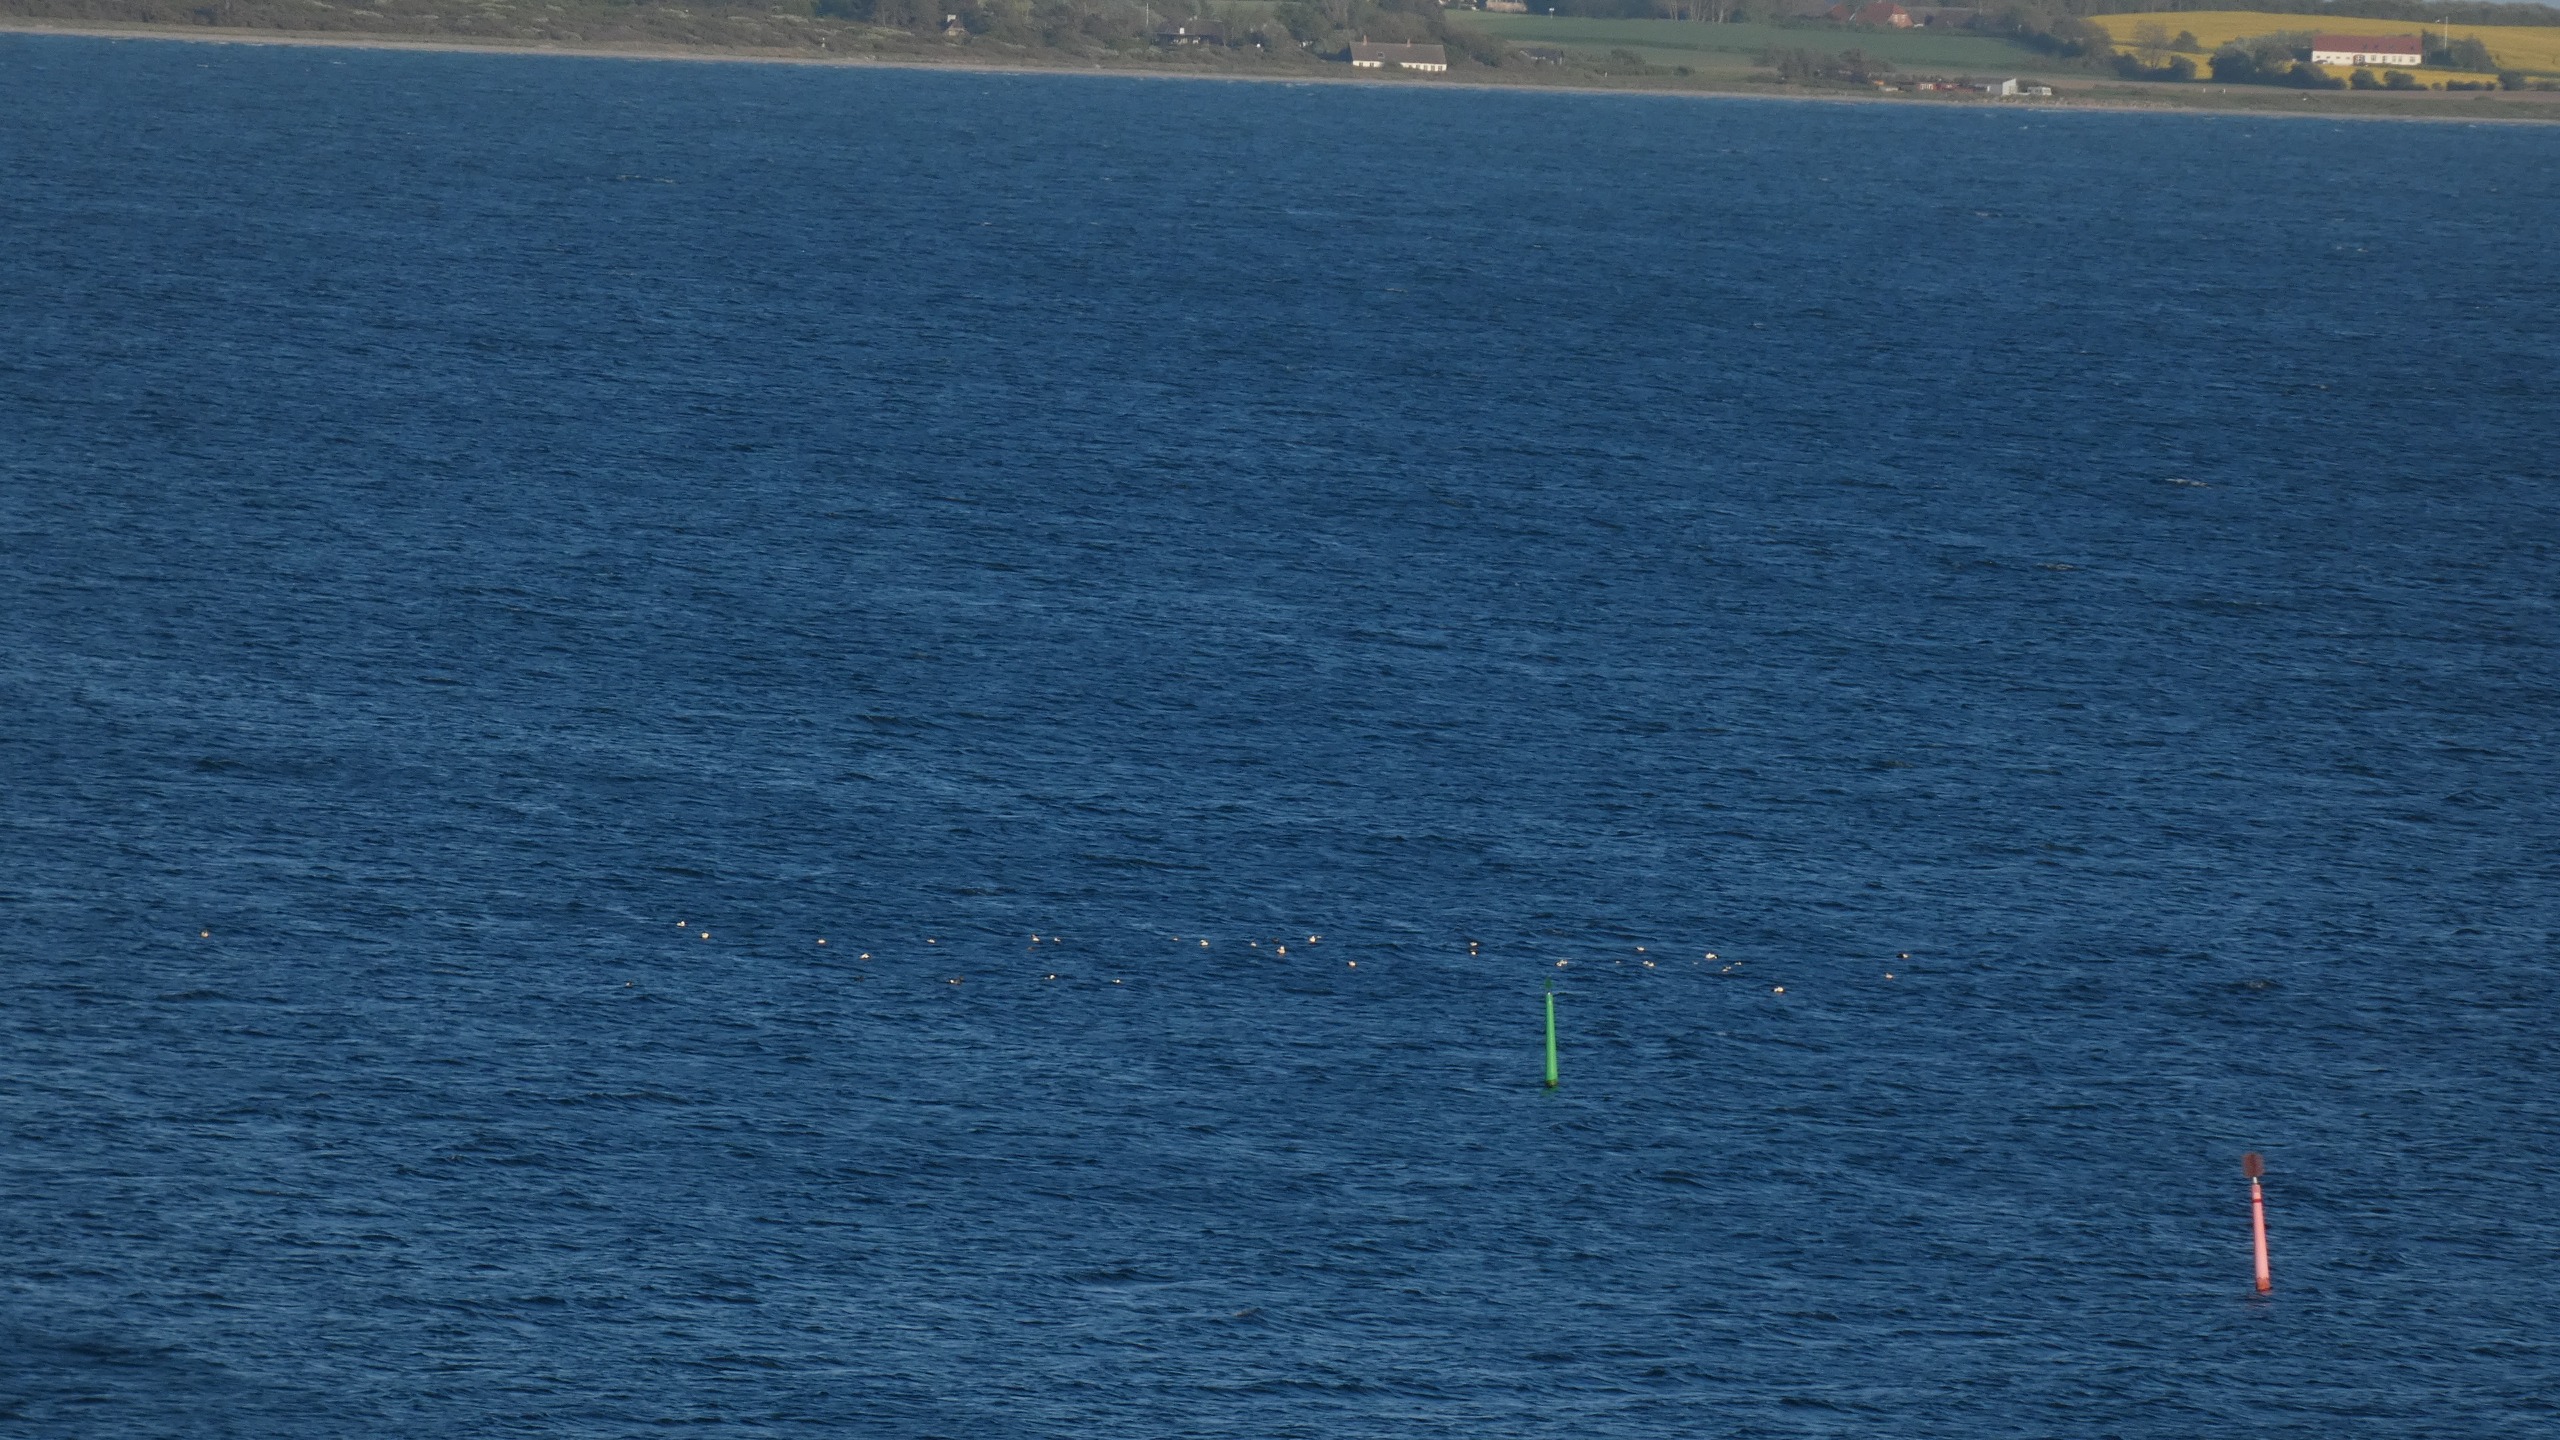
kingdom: Animalia
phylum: Chordata
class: Aves
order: Anseriformes
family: Anatidae
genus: Somateria
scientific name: Somateria mollissima
